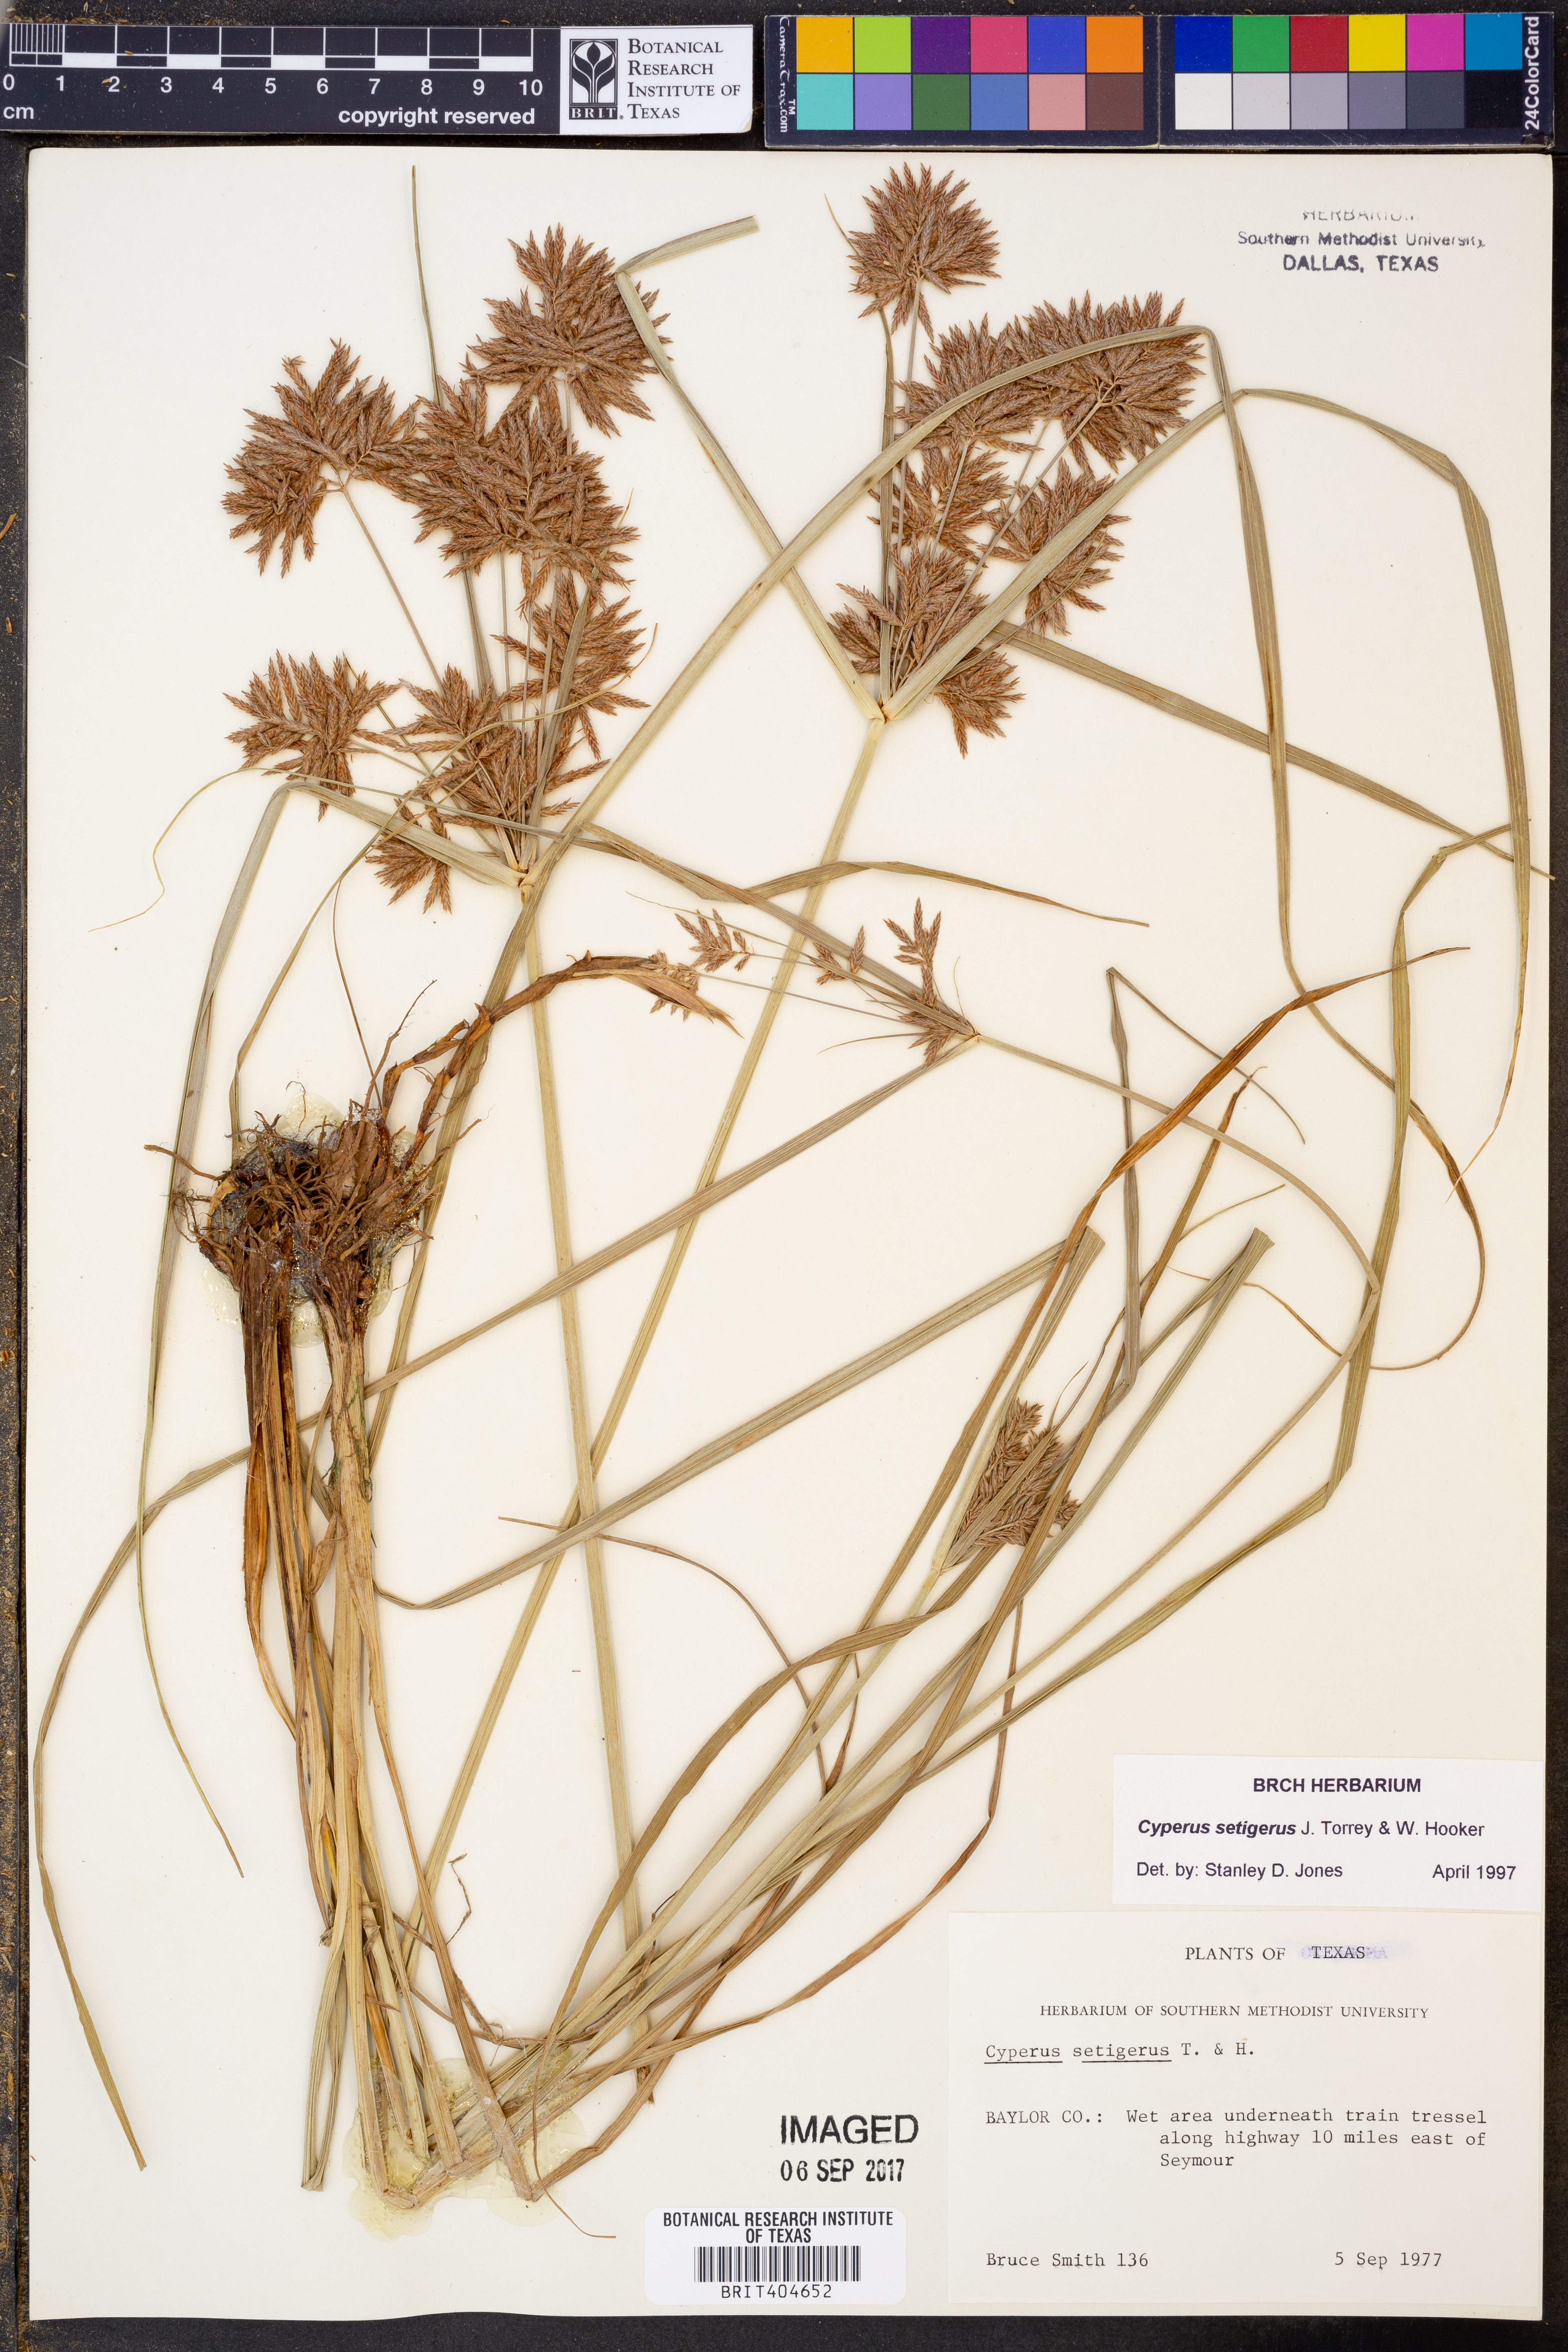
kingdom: Plantae
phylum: Tracheophyta
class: Liliopsida
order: Poales
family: Cyperaceae
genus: Cyperus
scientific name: Cyperus setigerus
